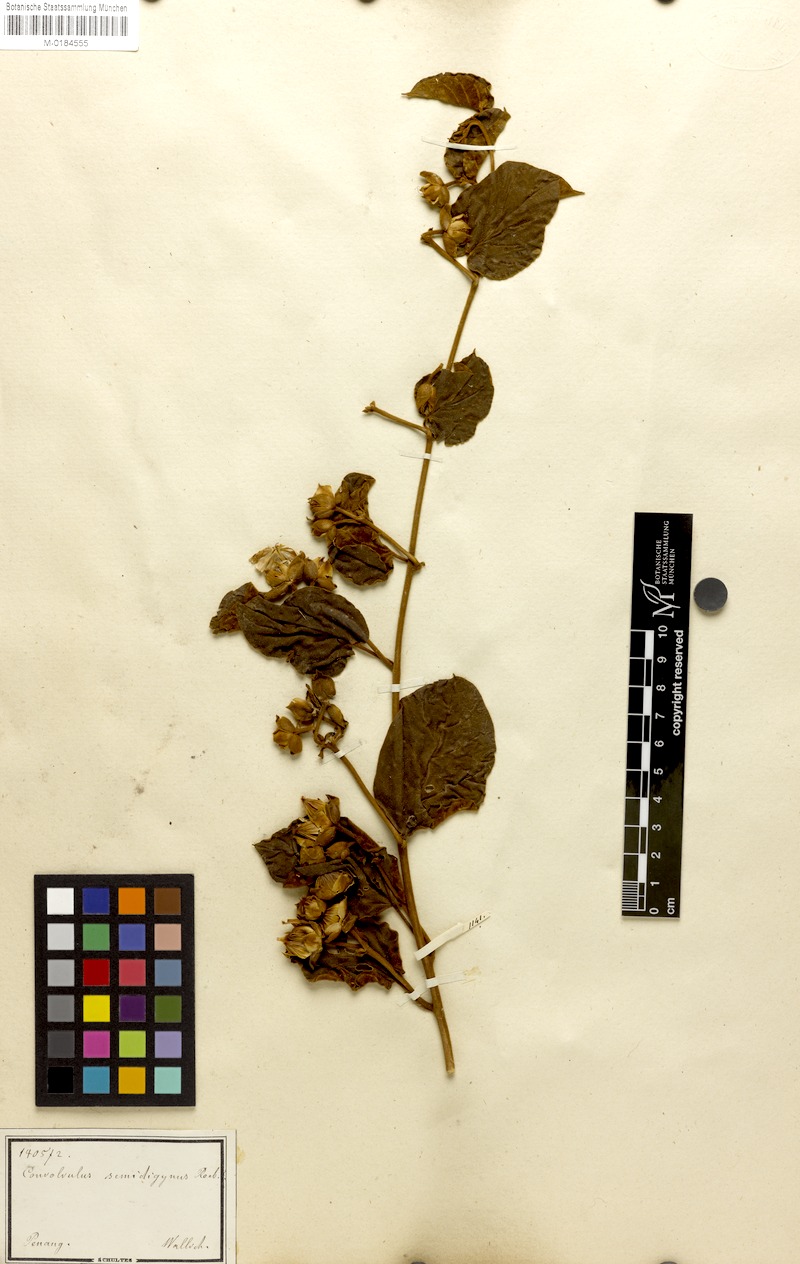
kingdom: Plantae
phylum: Tracheophyta
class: Magnoliopsida
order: Solanales
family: Convolvulaceae
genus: Bonamia
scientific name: Bonamia semidigyna
